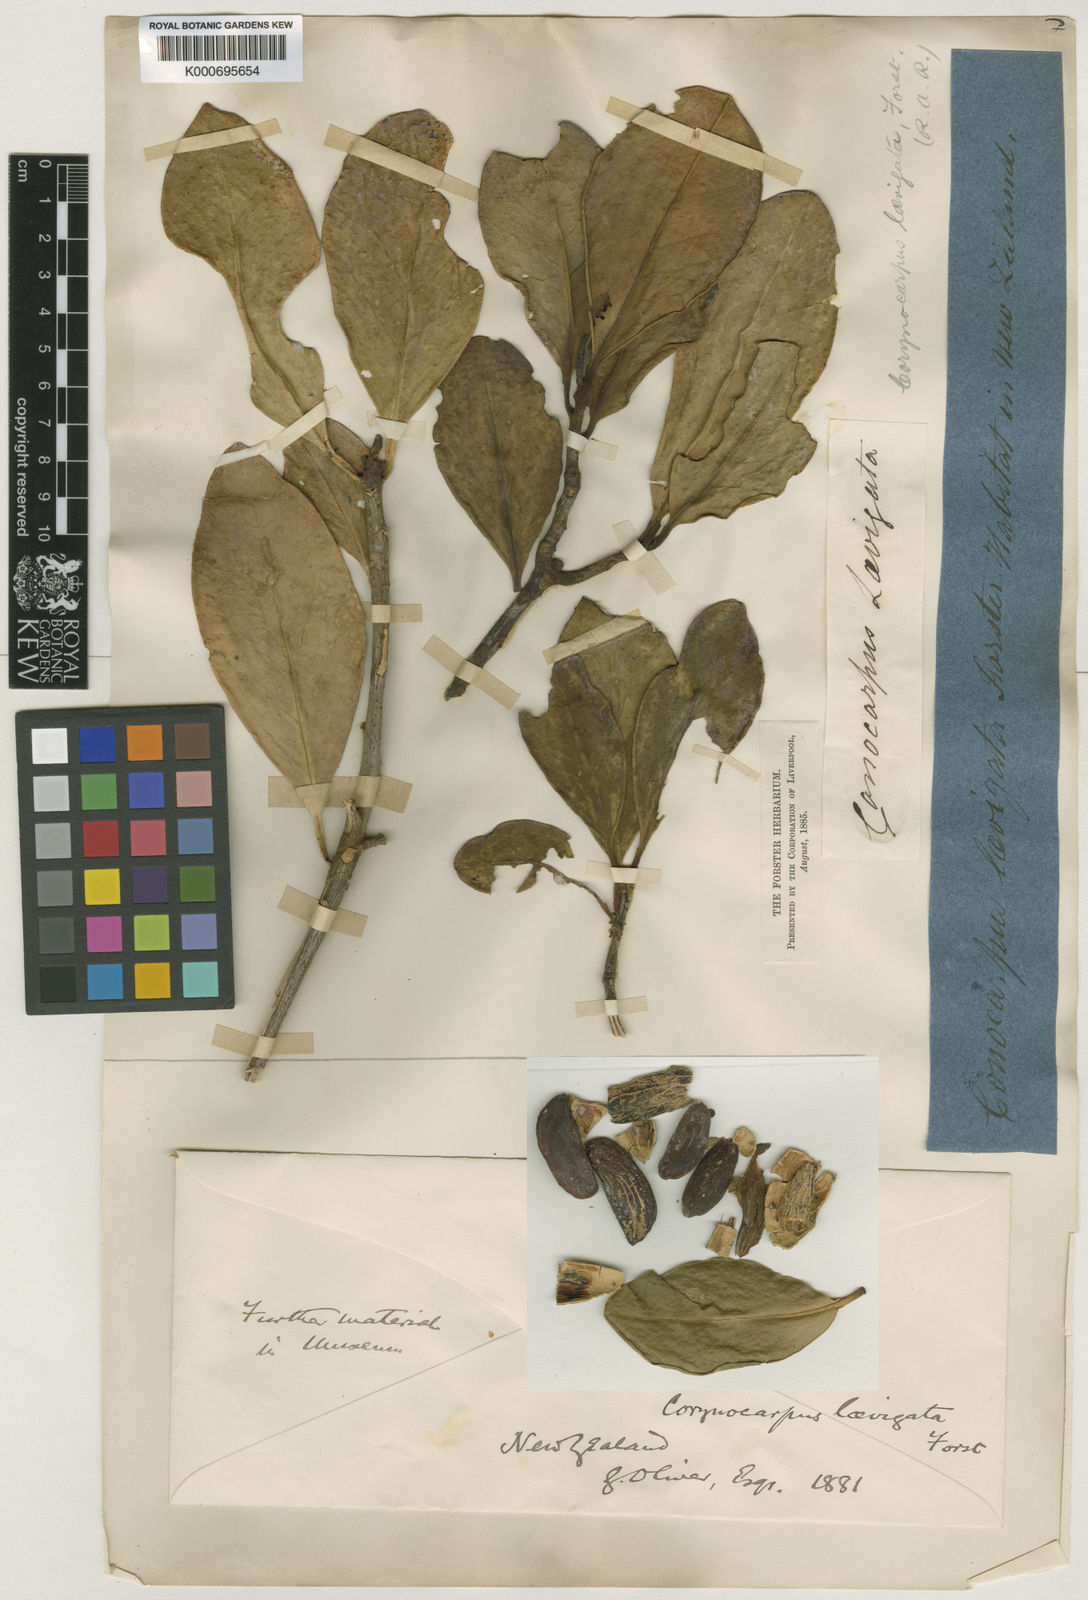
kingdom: Plantae
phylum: Tracheophyta
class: Magnoliopsida
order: Cucurbitales
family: Corynocarpaceae
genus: Corynocarpus
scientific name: Corynocarpus laevigatus
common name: New zealand laurel
